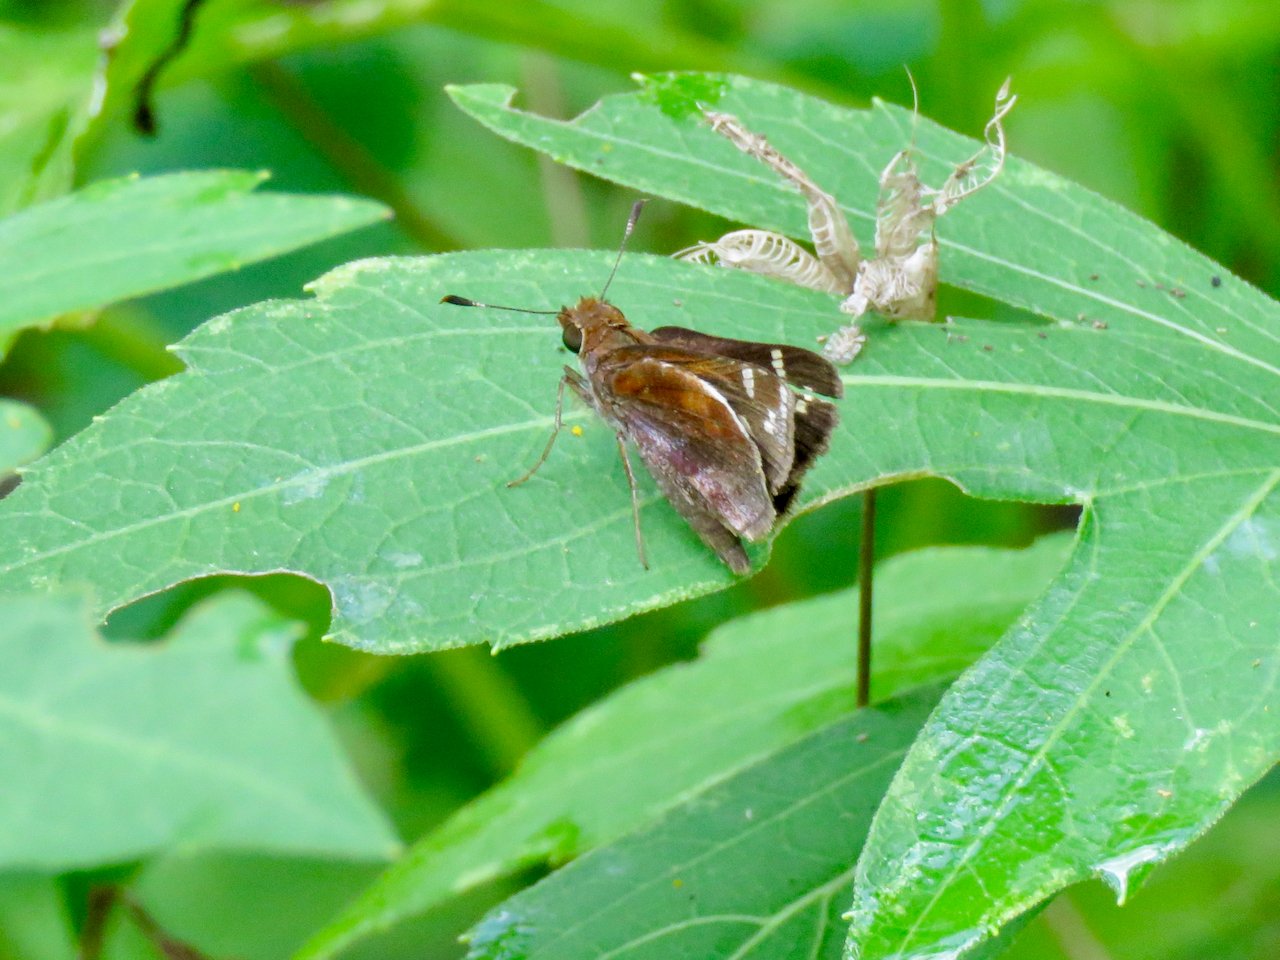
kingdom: Animalia
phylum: Arthropoda
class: Insecta
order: Lepidoptera
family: Hesperiidae
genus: Lon
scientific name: Lon zabulon
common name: Zabulon Skipper
